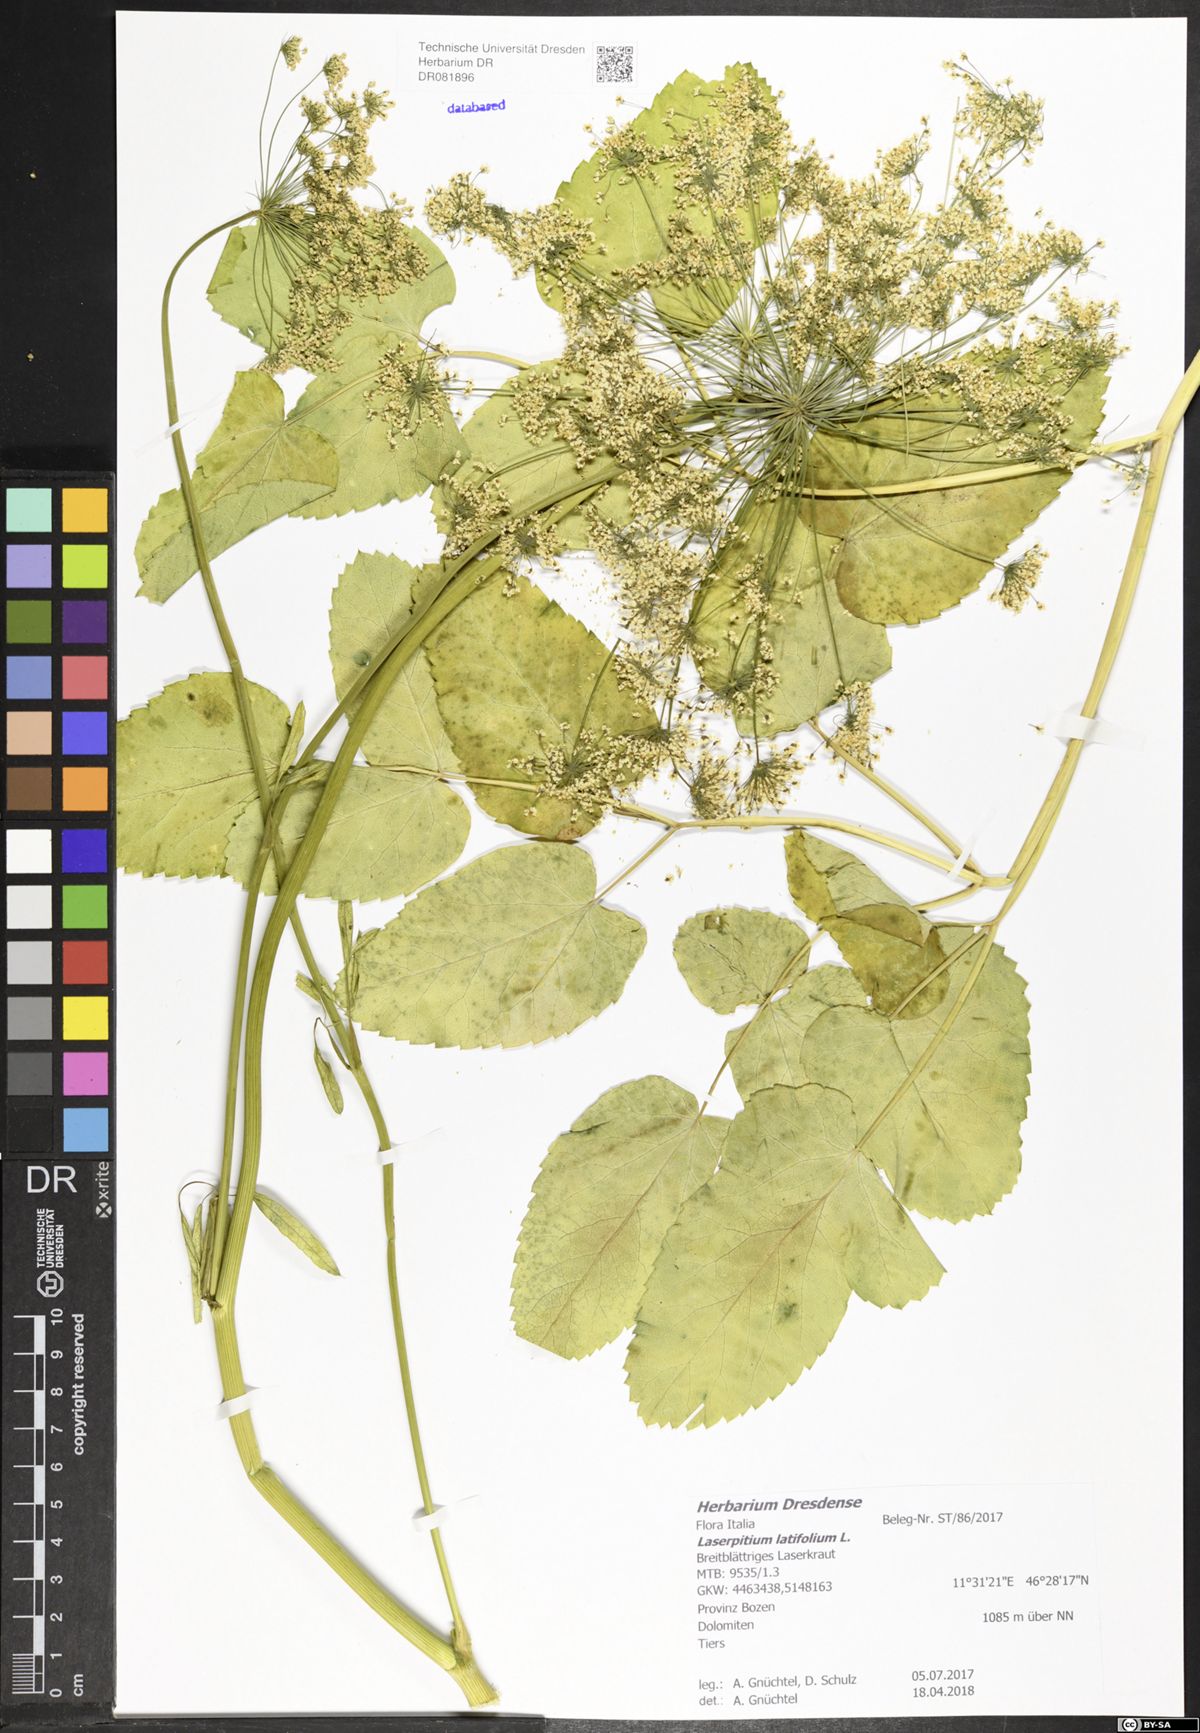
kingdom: Plantae
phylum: Tracheophyta
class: Magnoliopsida
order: Apiales
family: Apiaceae
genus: Laserpitium
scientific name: Laserpitium latifolium
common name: Broadleaf sermountain
